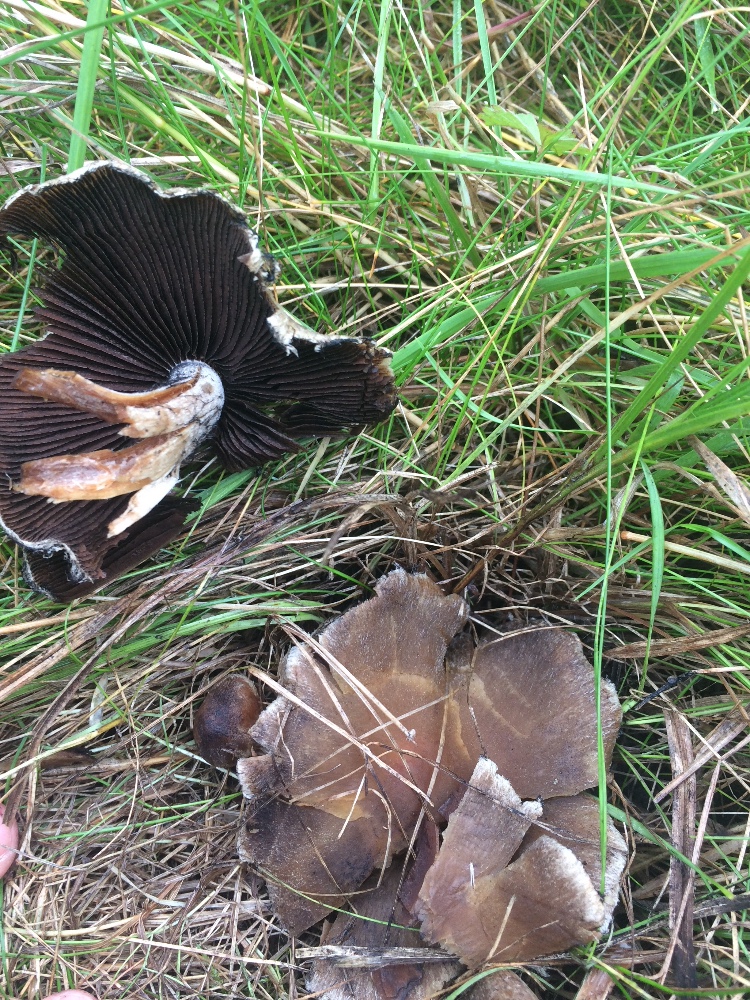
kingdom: Fungi
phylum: Basidiomycota
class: Agaricomycetes
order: Agaricales
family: Psathyrellaceae
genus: Lacrymaria
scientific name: Lacrymaria lacrymabunda
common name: grædende mørkhat
